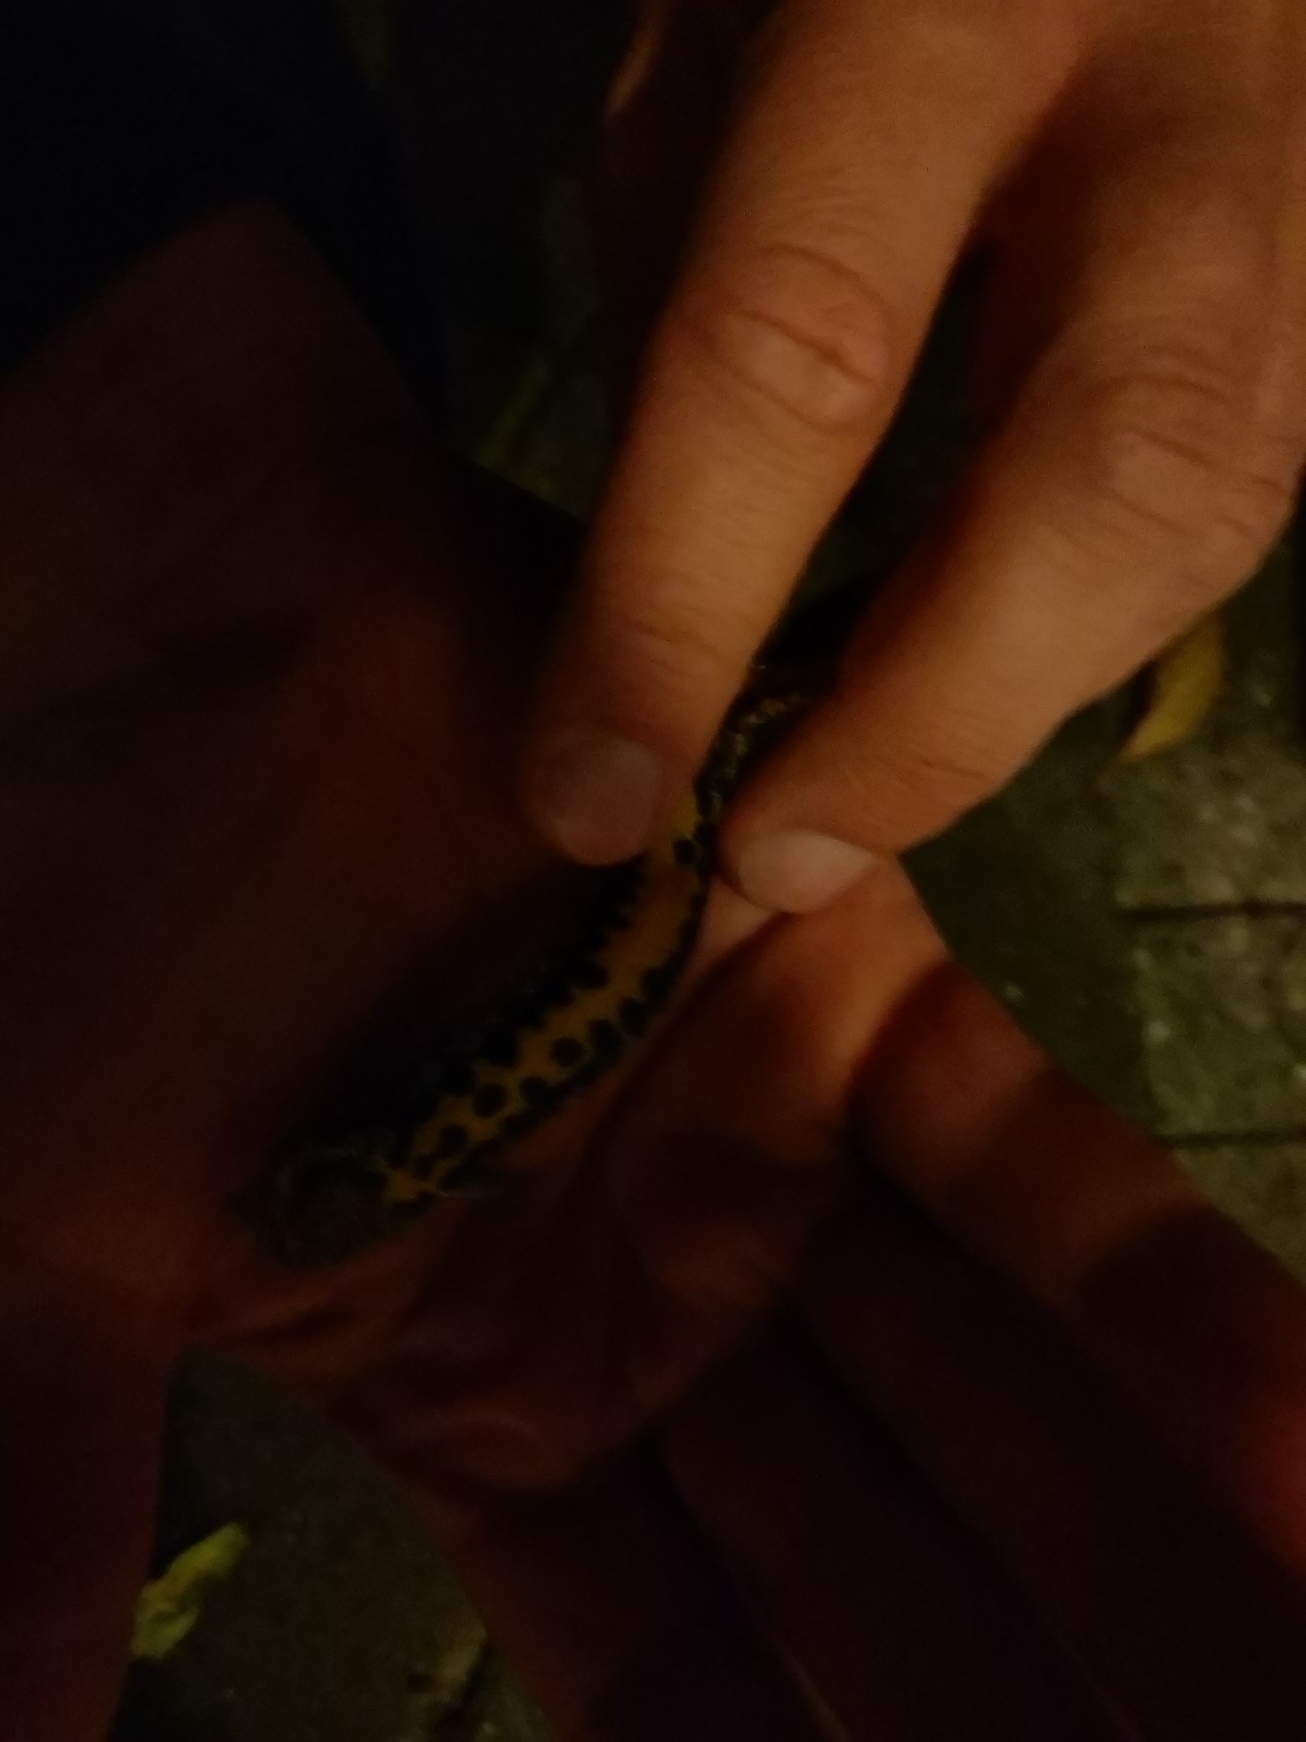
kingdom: Animalia
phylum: Chordata
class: Amphibia
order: Caudata
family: Salamandridae
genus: Triturus
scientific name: Triturus cristatus
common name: Stor vandsalamander
